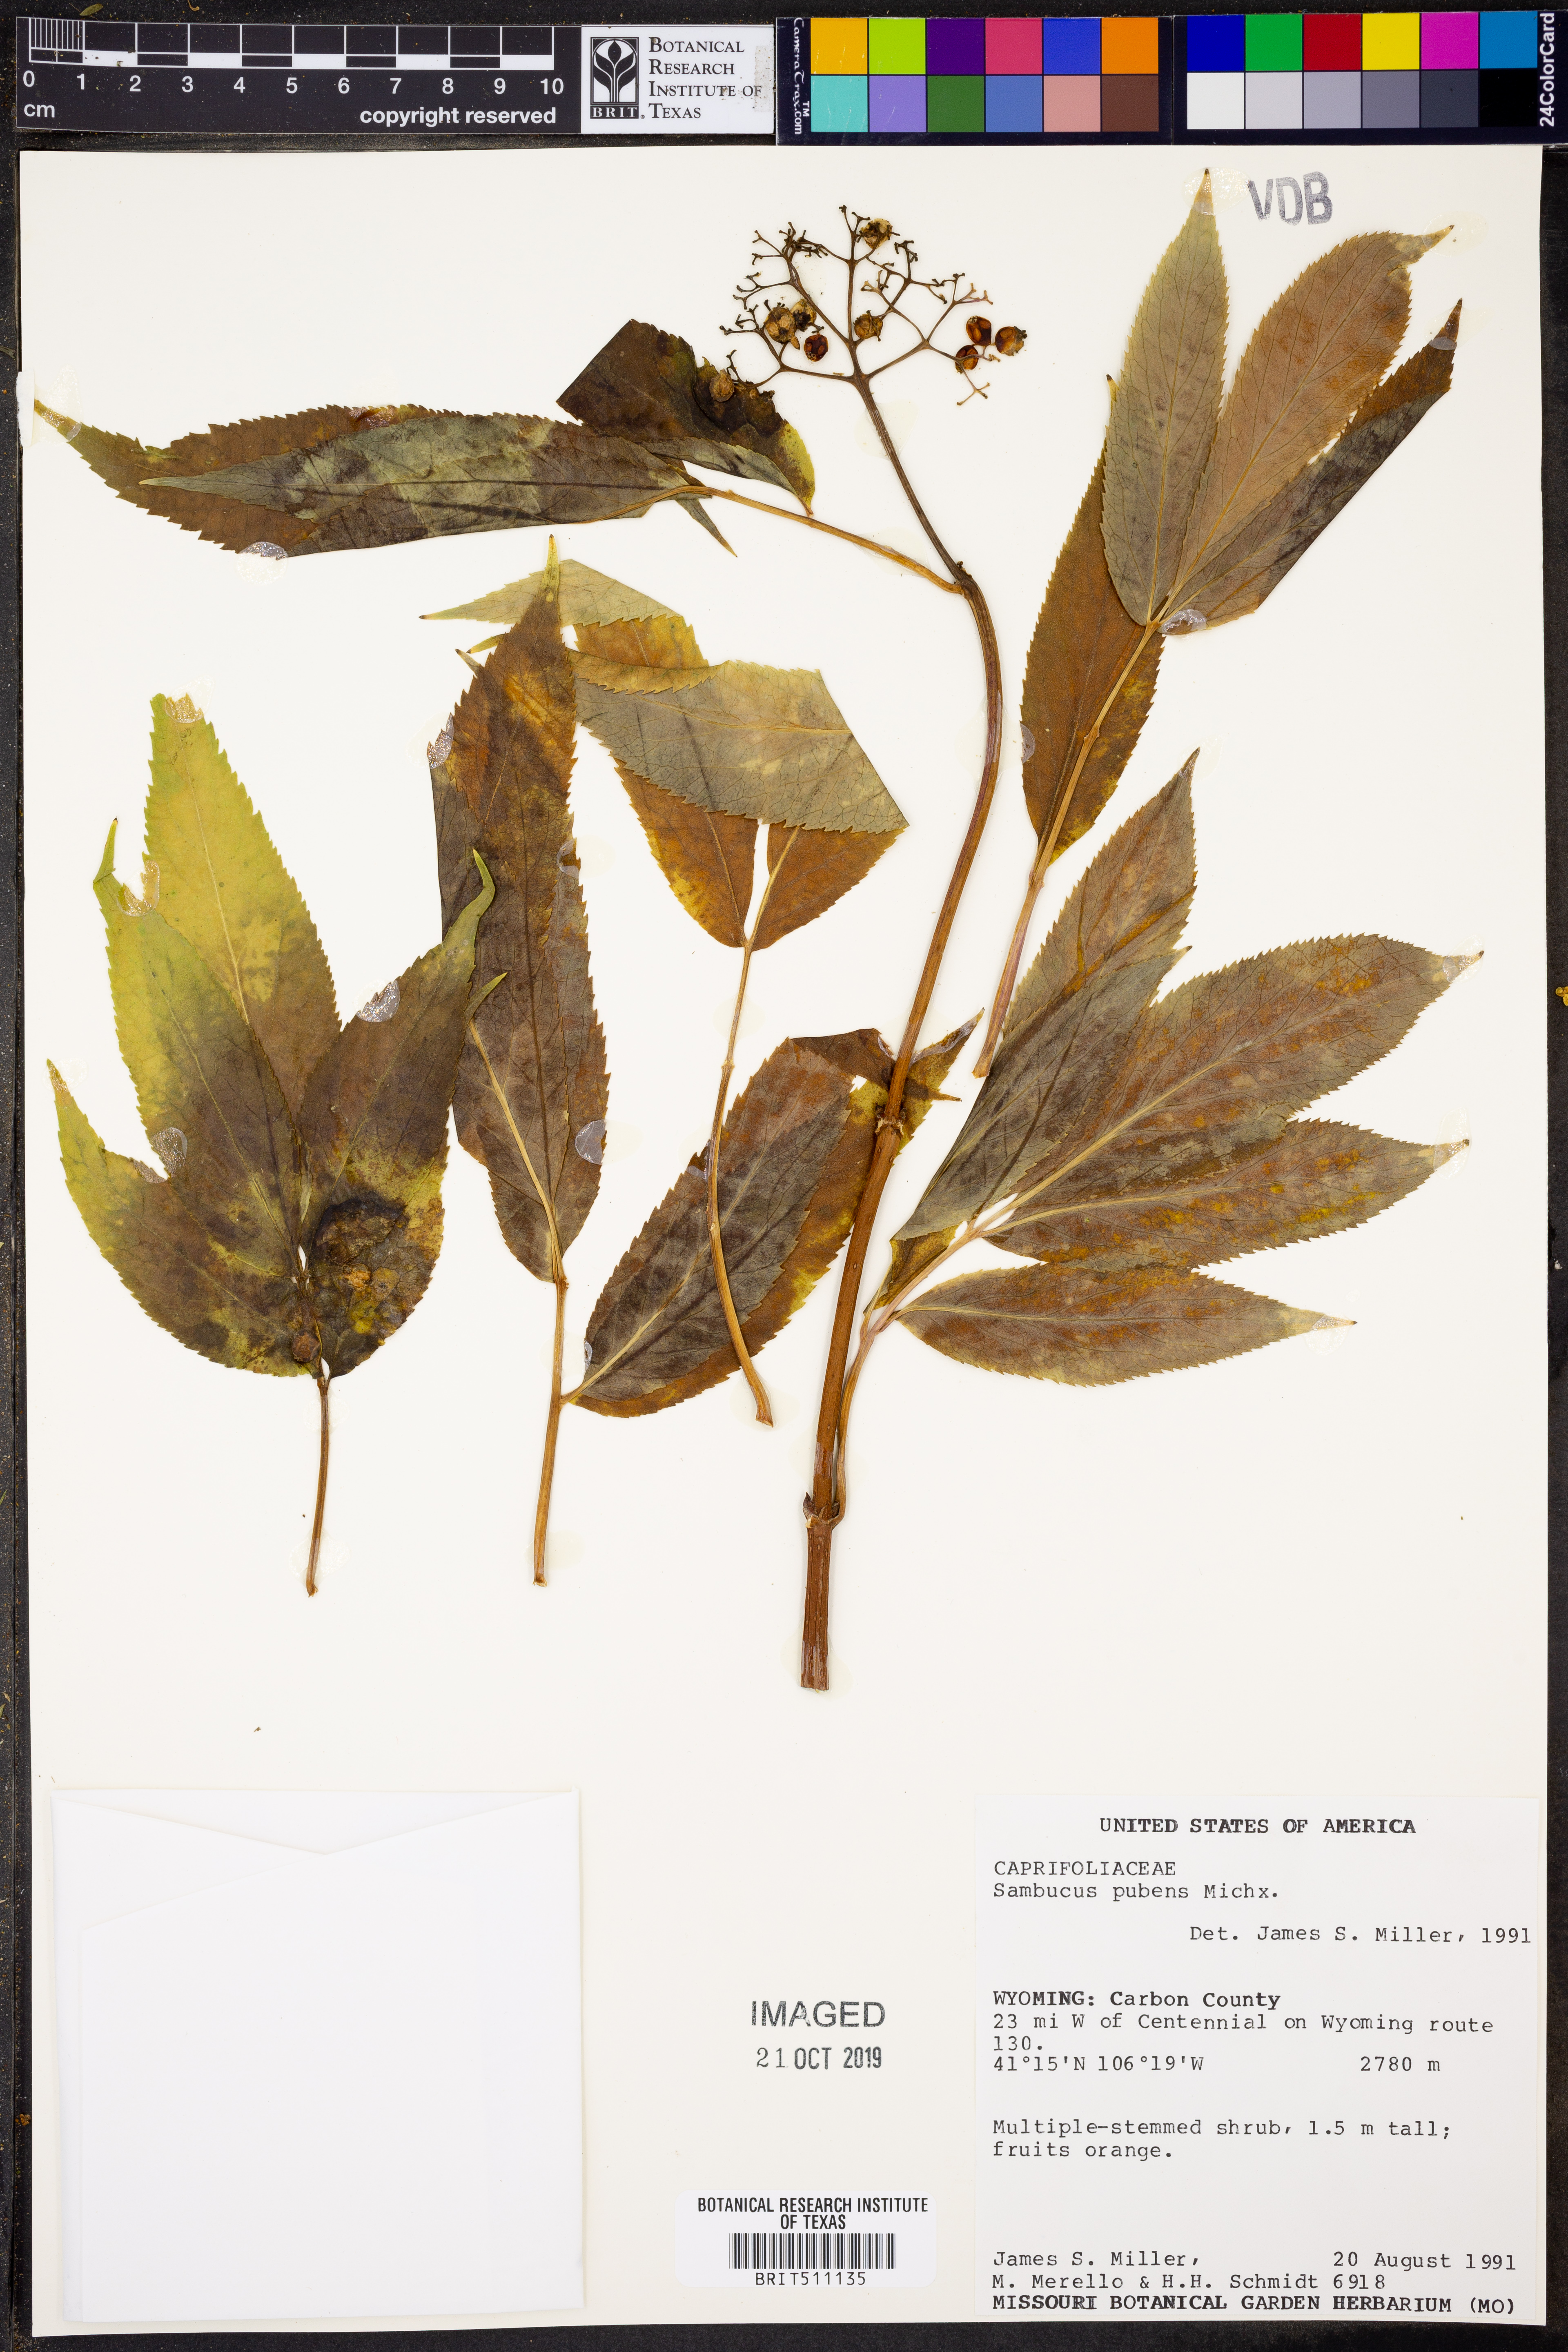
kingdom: Plantae
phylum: Tracheophyta
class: Magnoliopsida
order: Dipsacales
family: Viburnaceae
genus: Sambucus
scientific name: Sambucus racemosa
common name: Red-berried elder
